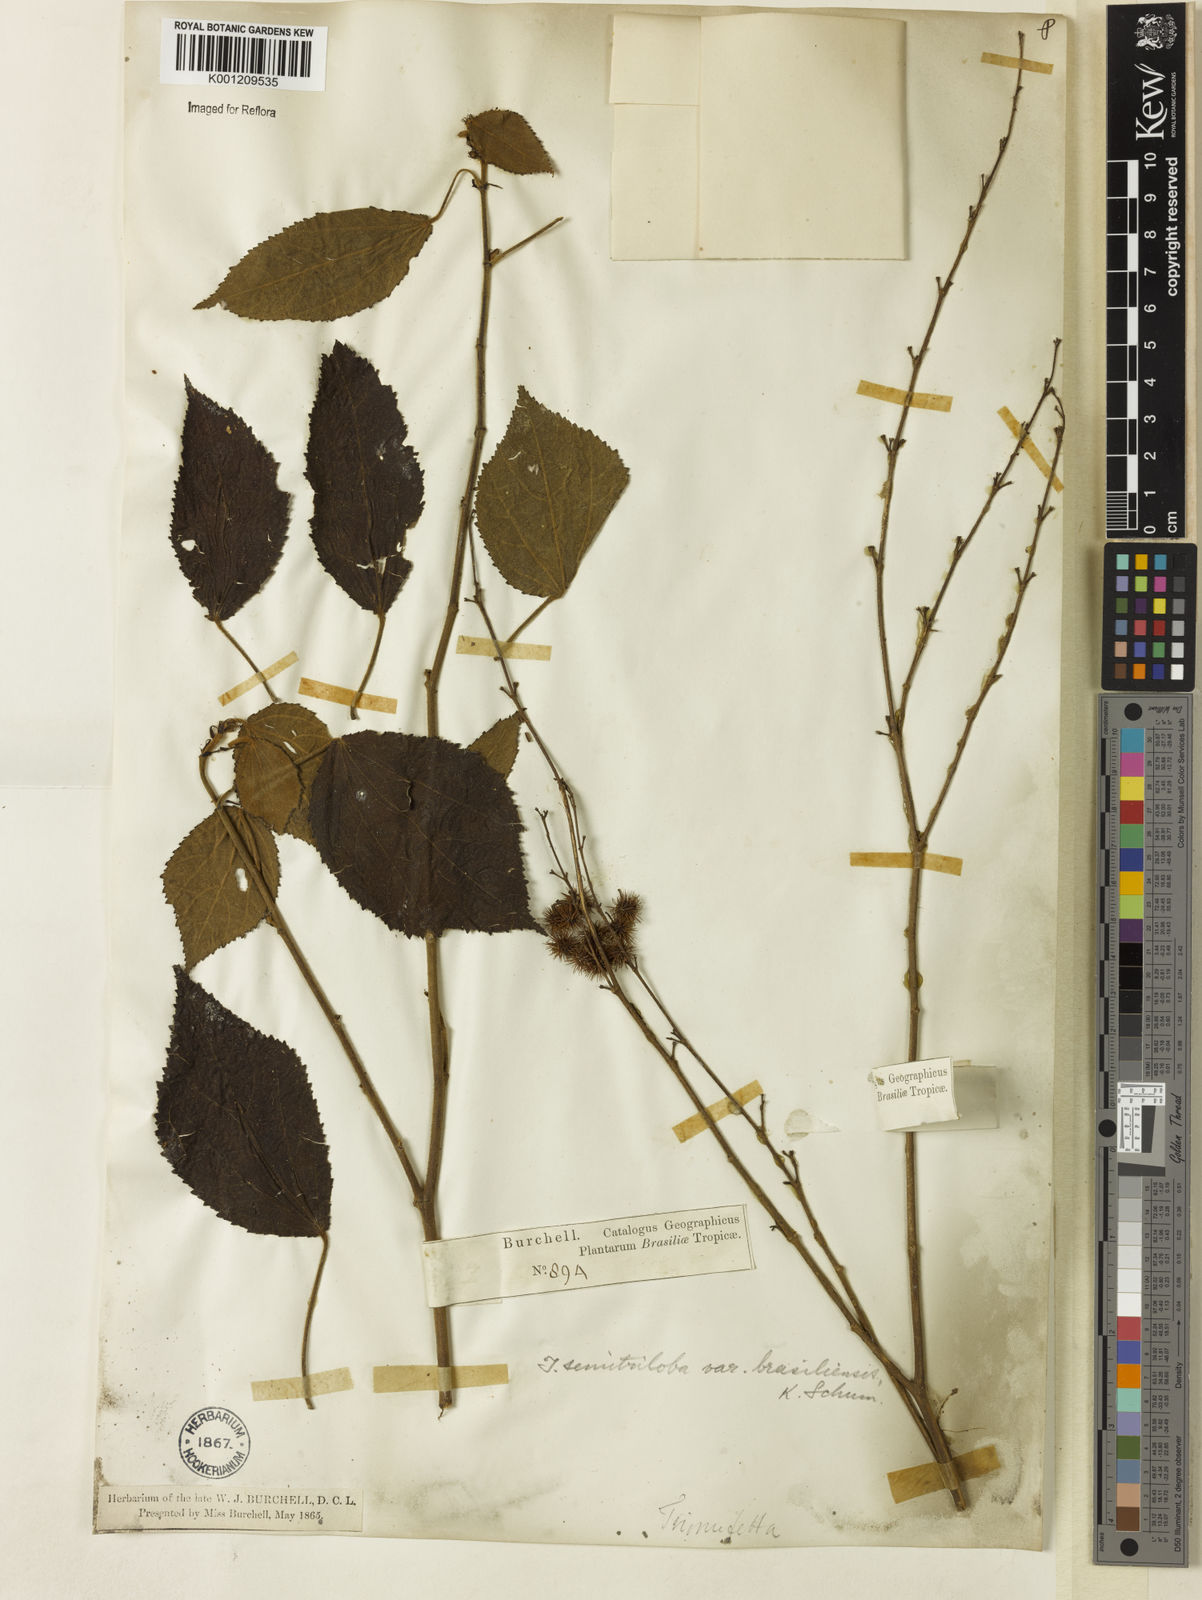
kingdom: Plantae
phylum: Tracheophyta
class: Magnoliopsida
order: Malvales
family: Malvaceae
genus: Triumfetta
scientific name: Triumfetta semitriloba
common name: Sacramento burbark
